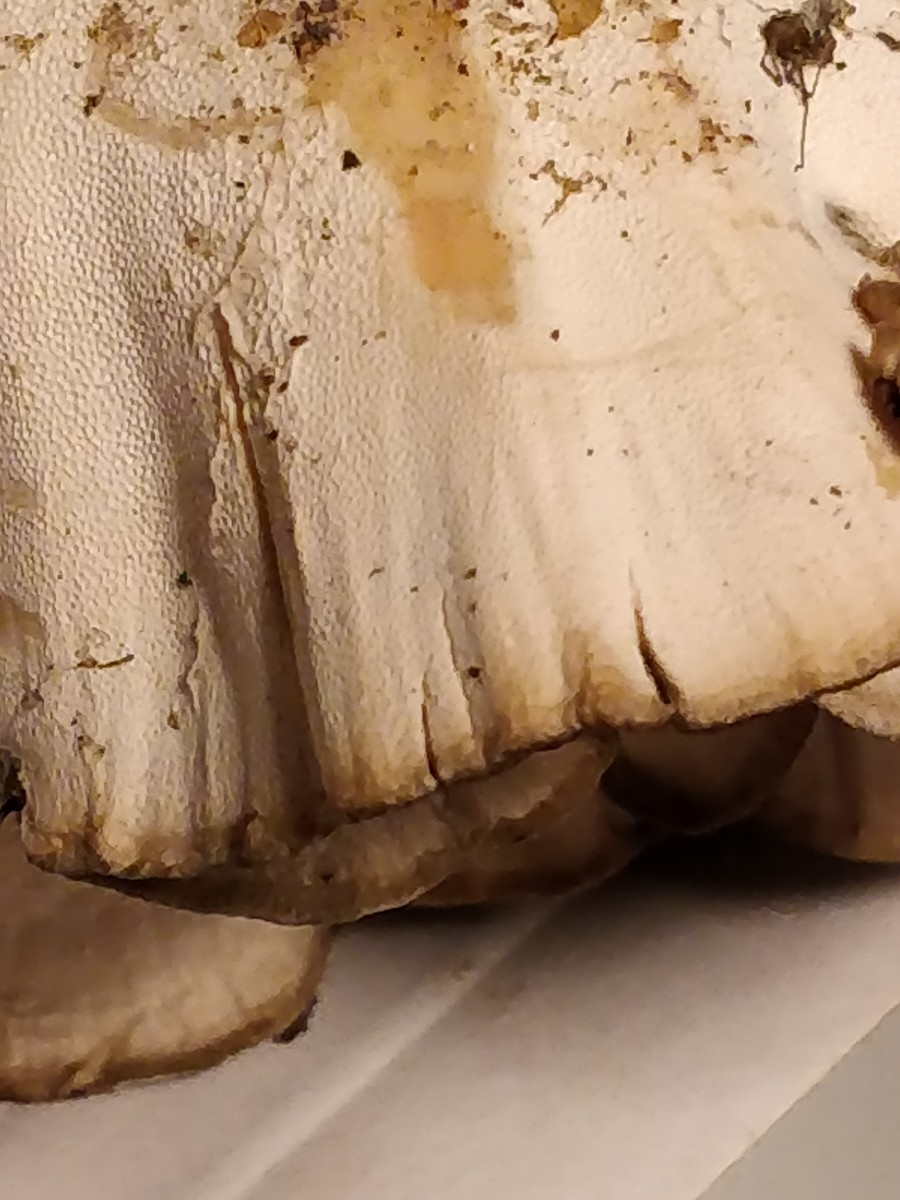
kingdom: Fungi
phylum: Basidiomycota
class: Agaricomycetes
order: Polyporales
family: Grifolaceae
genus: Grifola
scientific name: Grifola frondosa
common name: tueporesvamp
